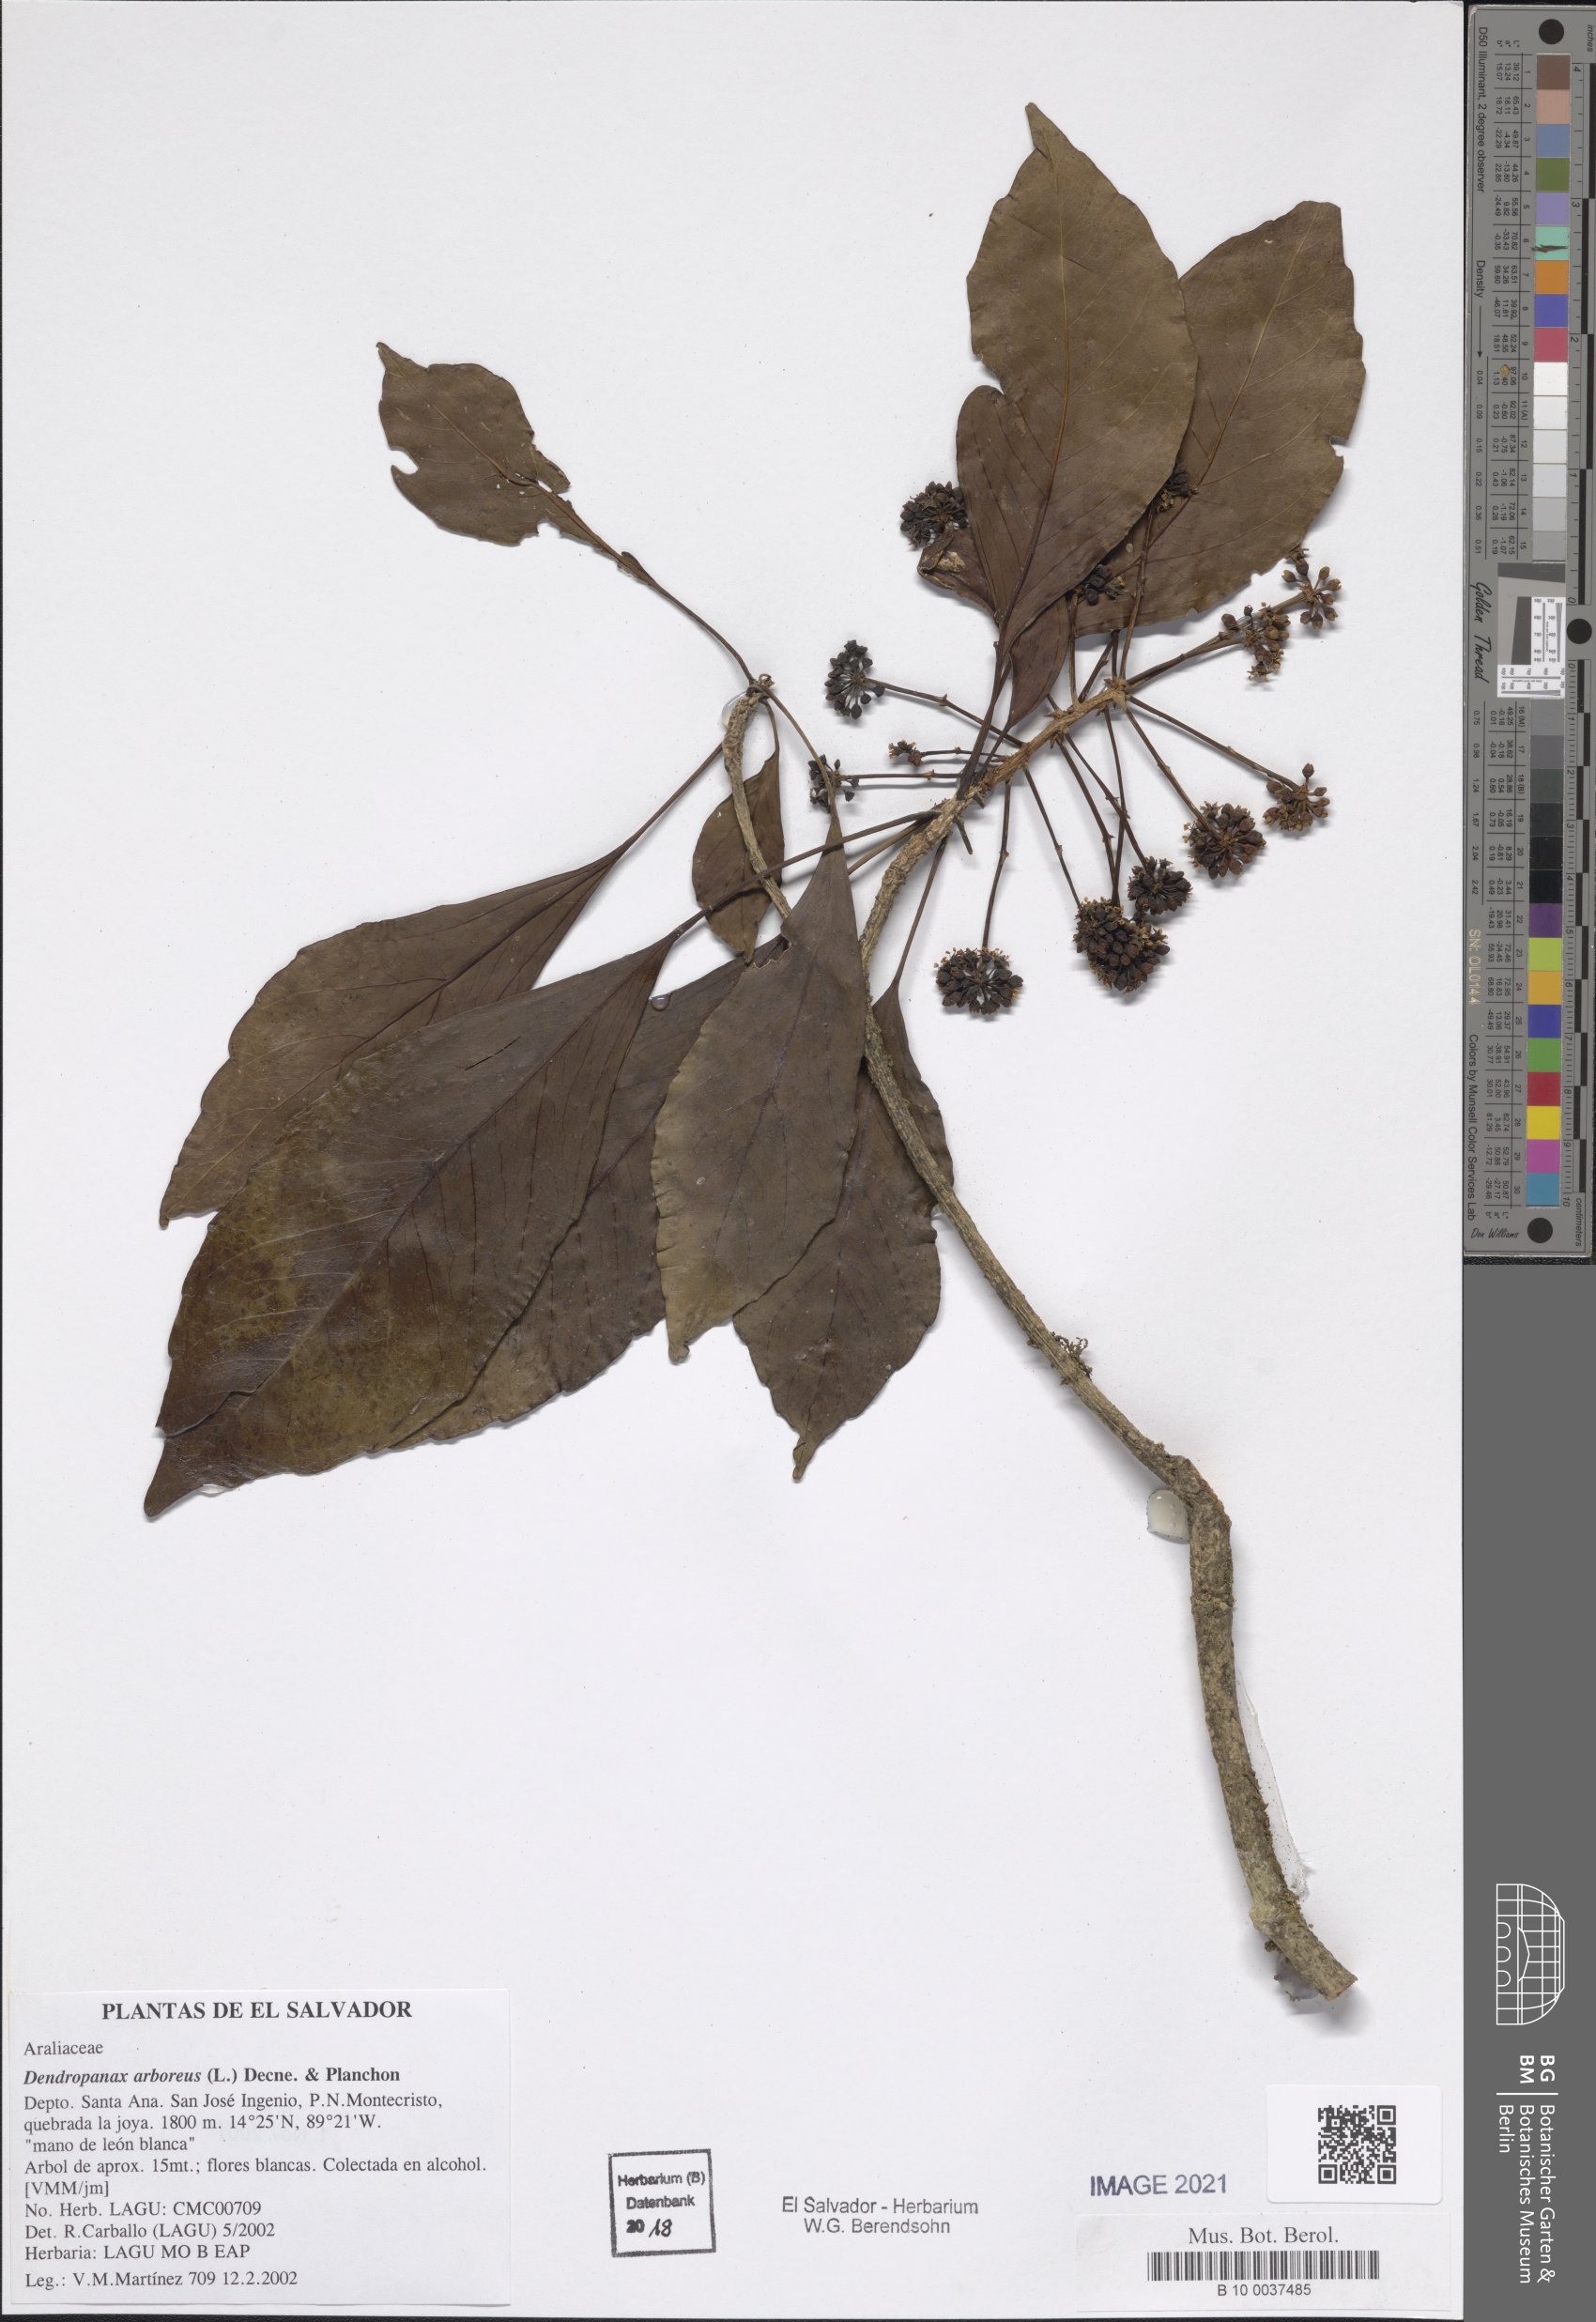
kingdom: Plantae
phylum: Tracheophyta
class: Magnoliopsida
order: Apiales
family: Araliaceae
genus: Dendropanax
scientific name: Dendropanax arboreus
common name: Potato-wood
